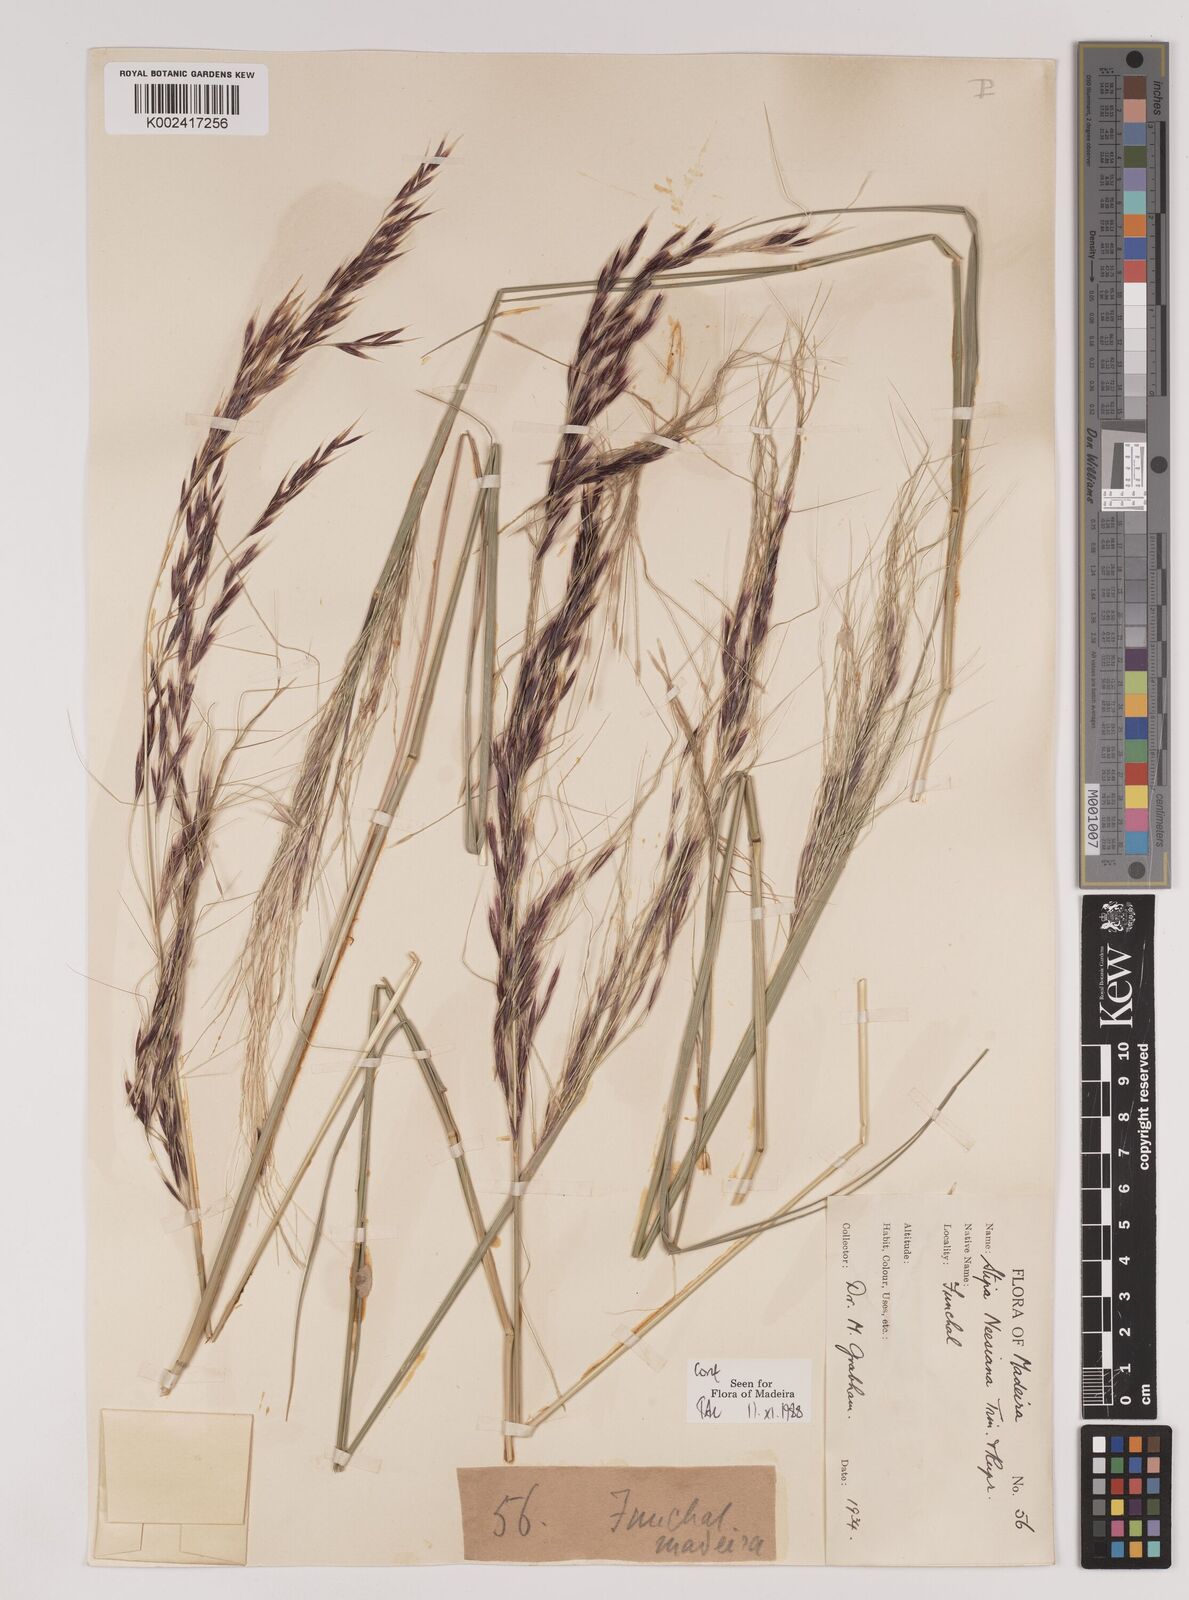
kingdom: Plantae
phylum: Tracheophyta
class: Liliopsida
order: Poales
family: Poaceae
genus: Nassella
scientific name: Nassella neesiana
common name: American needle-grass
